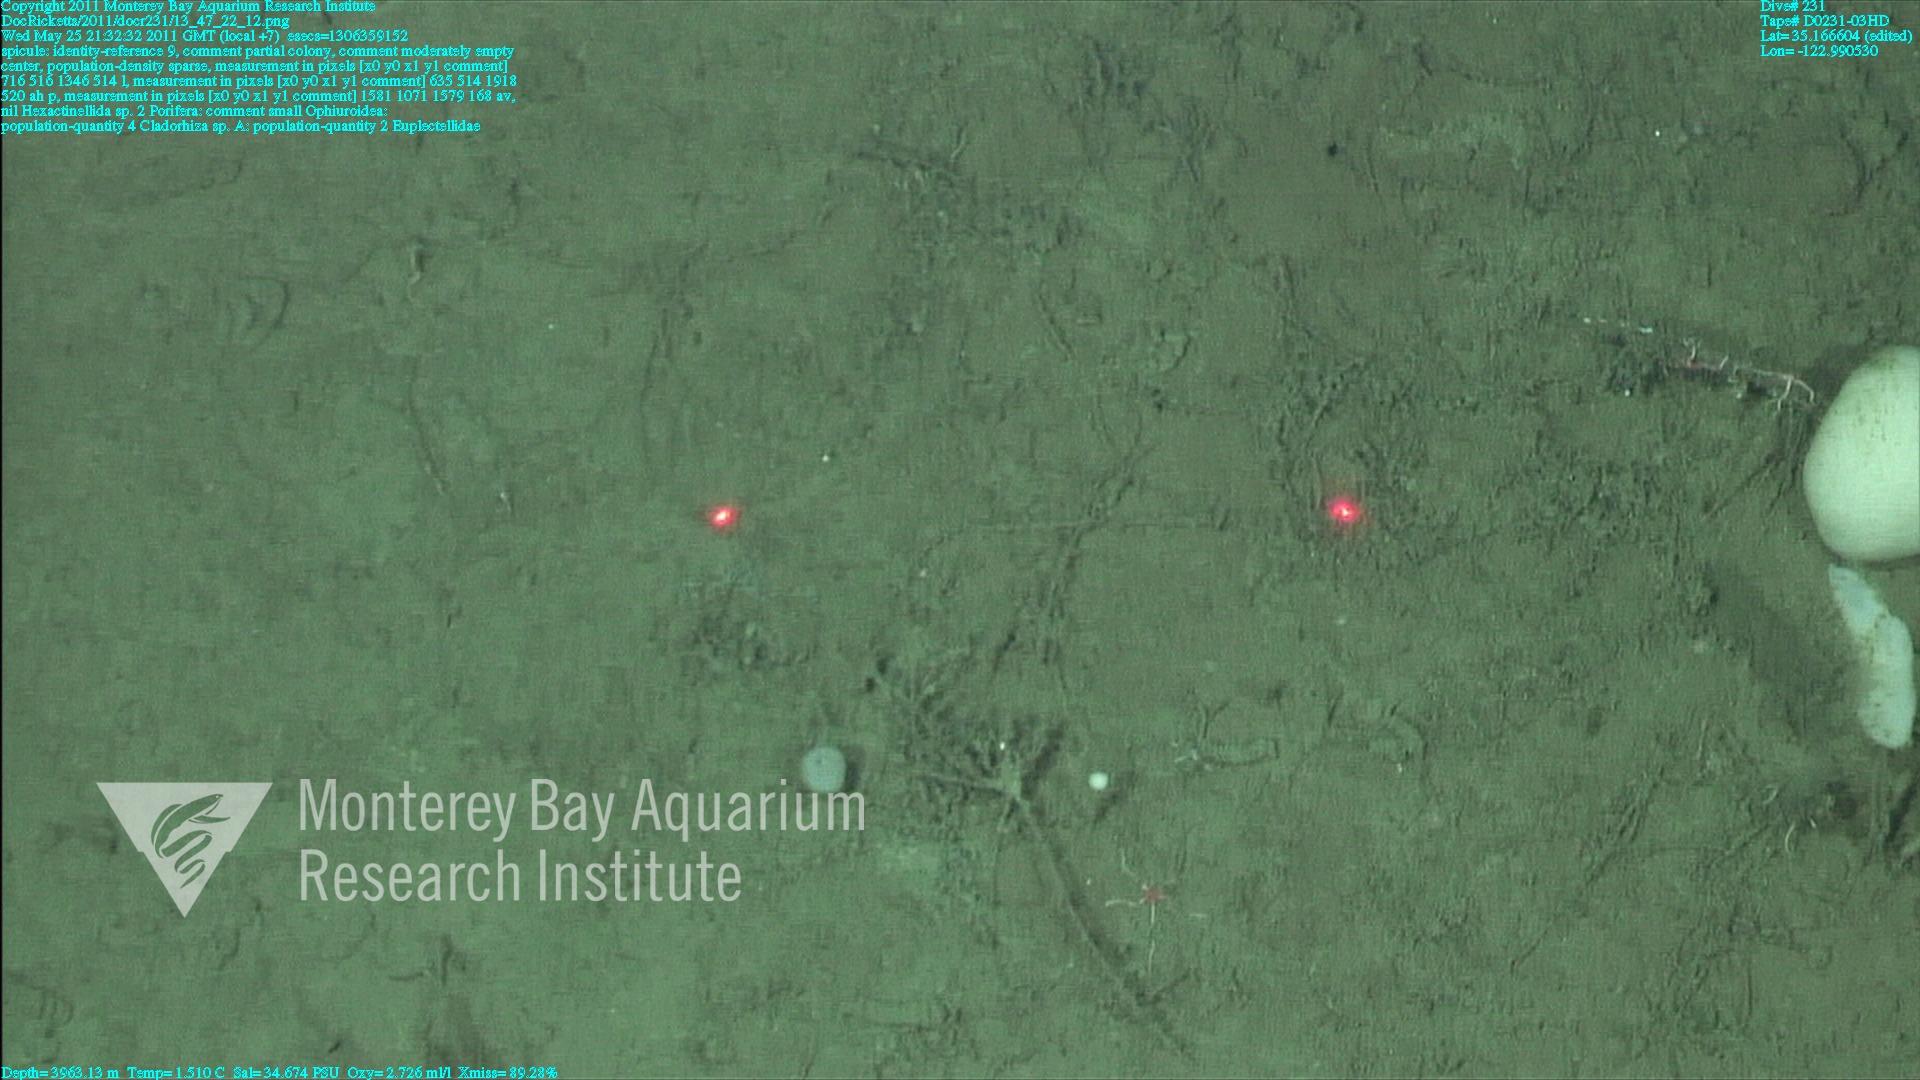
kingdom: Animalia
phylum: Porifera
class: Demospongiae
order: Poecilosclerida
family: Cladorhizidae
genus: Cladorhiza
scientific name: Cladorhiza
